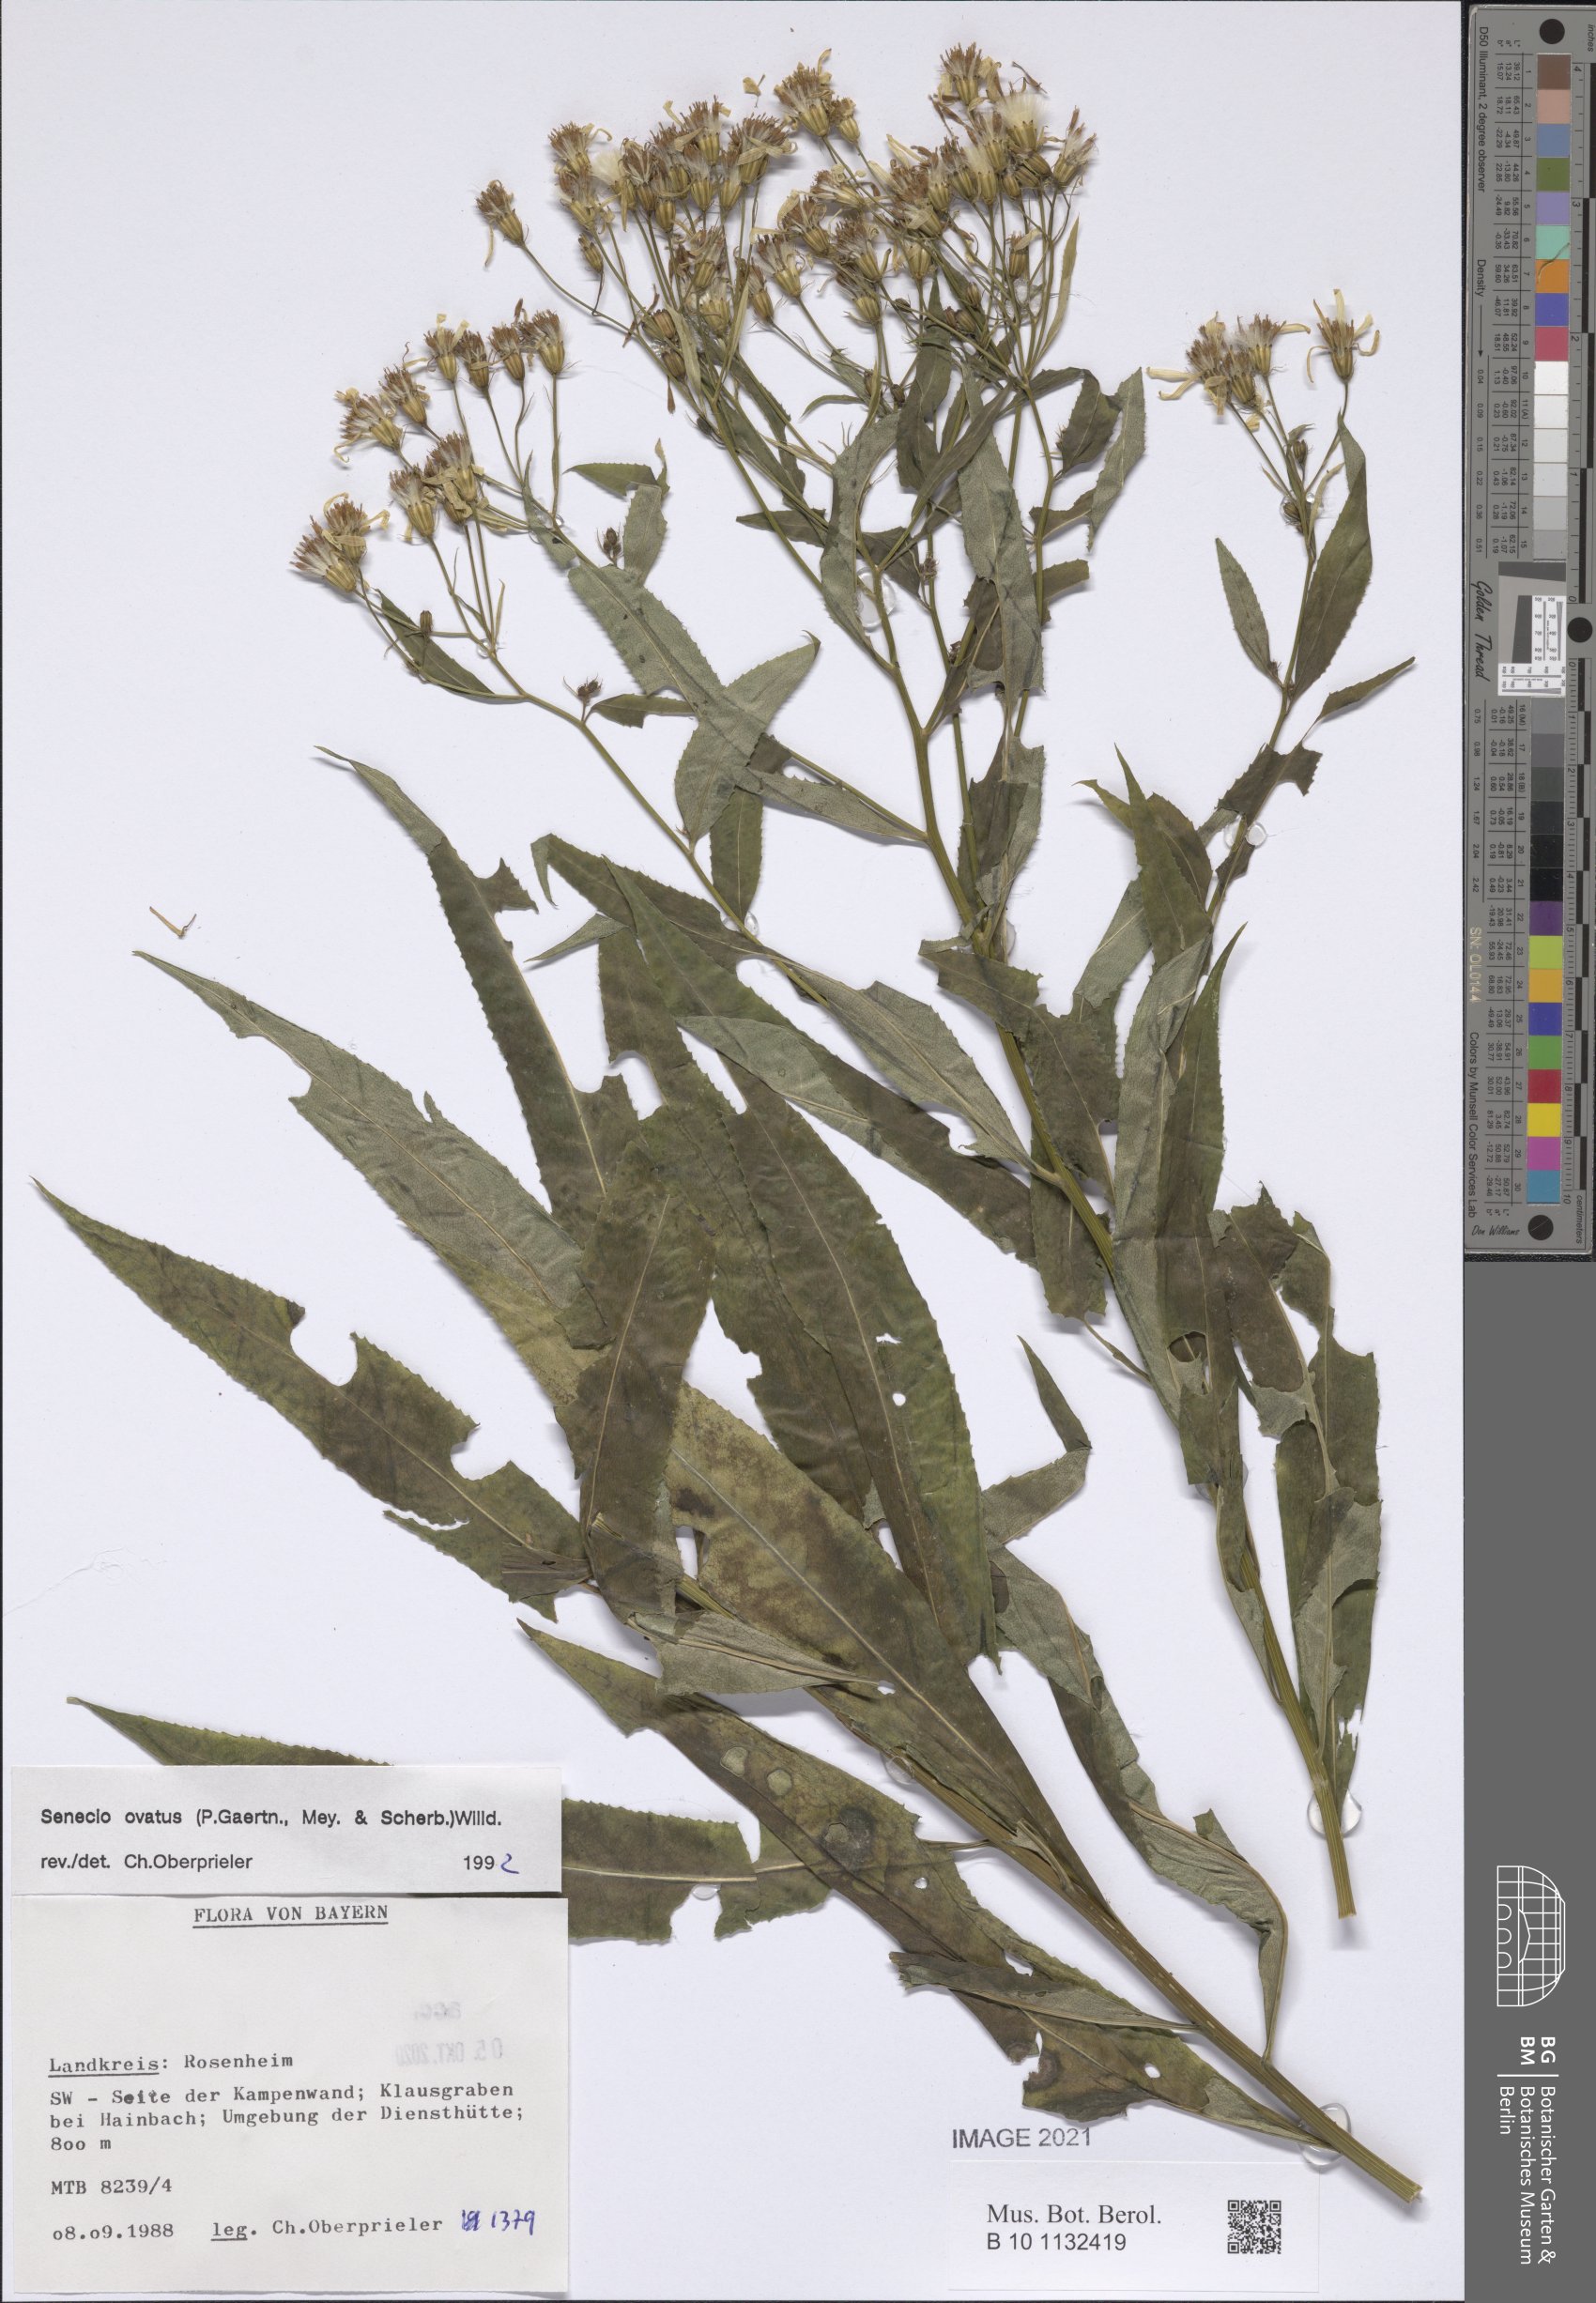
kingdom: Plantae
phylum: Tracheophyta
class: Magnoliopsida
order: Asterales
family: Asteraceae
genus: Senecio
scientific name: Senecio ovatus
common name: Wood ragwort
